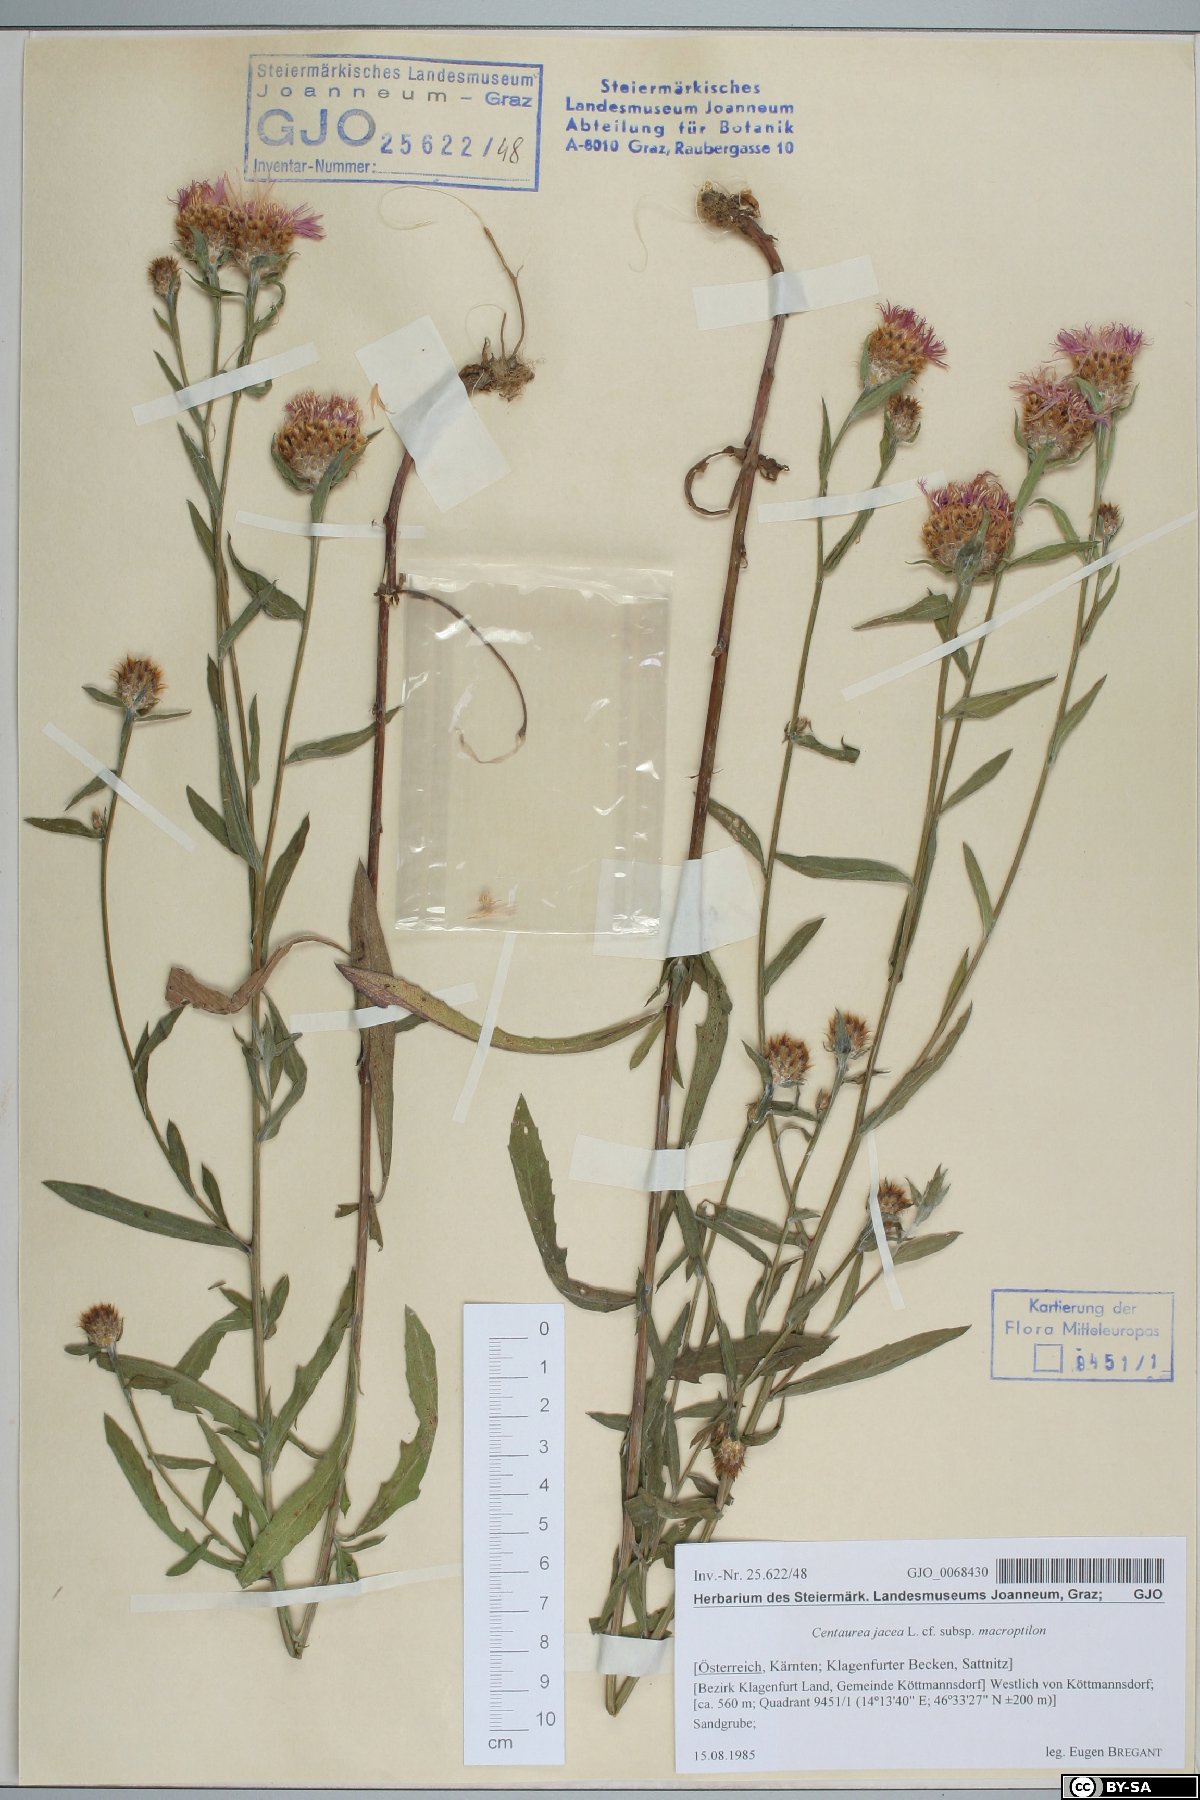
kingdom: Plantae
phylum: Tracheophyta
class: Magnoliopsida
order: Asterales
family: Asteraceae
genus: Centaurea
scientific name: Centaurea
